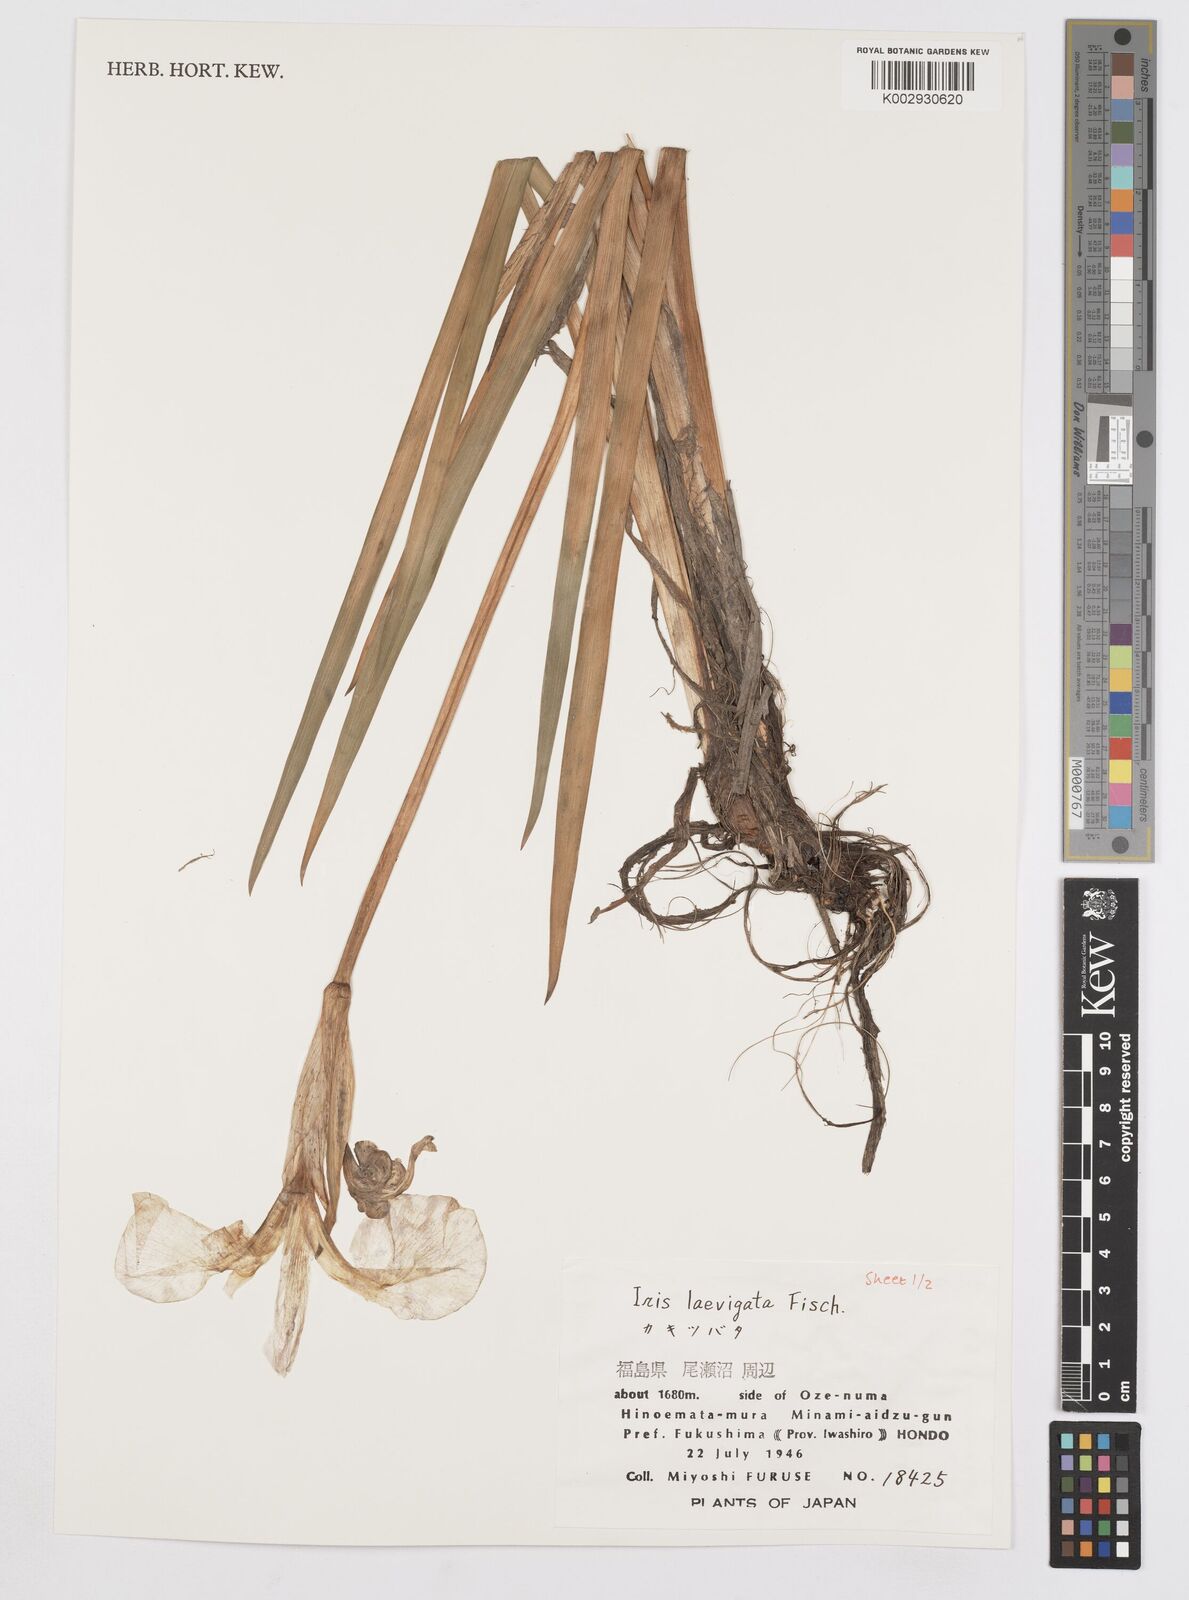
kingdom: Plantae
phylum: Tracheophyta
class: Liliopsida
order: Asparagales
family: Iridaceae
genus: Iris
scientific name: Iris laevigata
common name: Japanese iris
